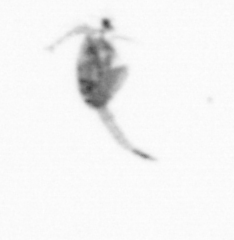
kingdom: Animalia
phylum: Arthropoda
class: Copepoda
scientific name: Copepoda
